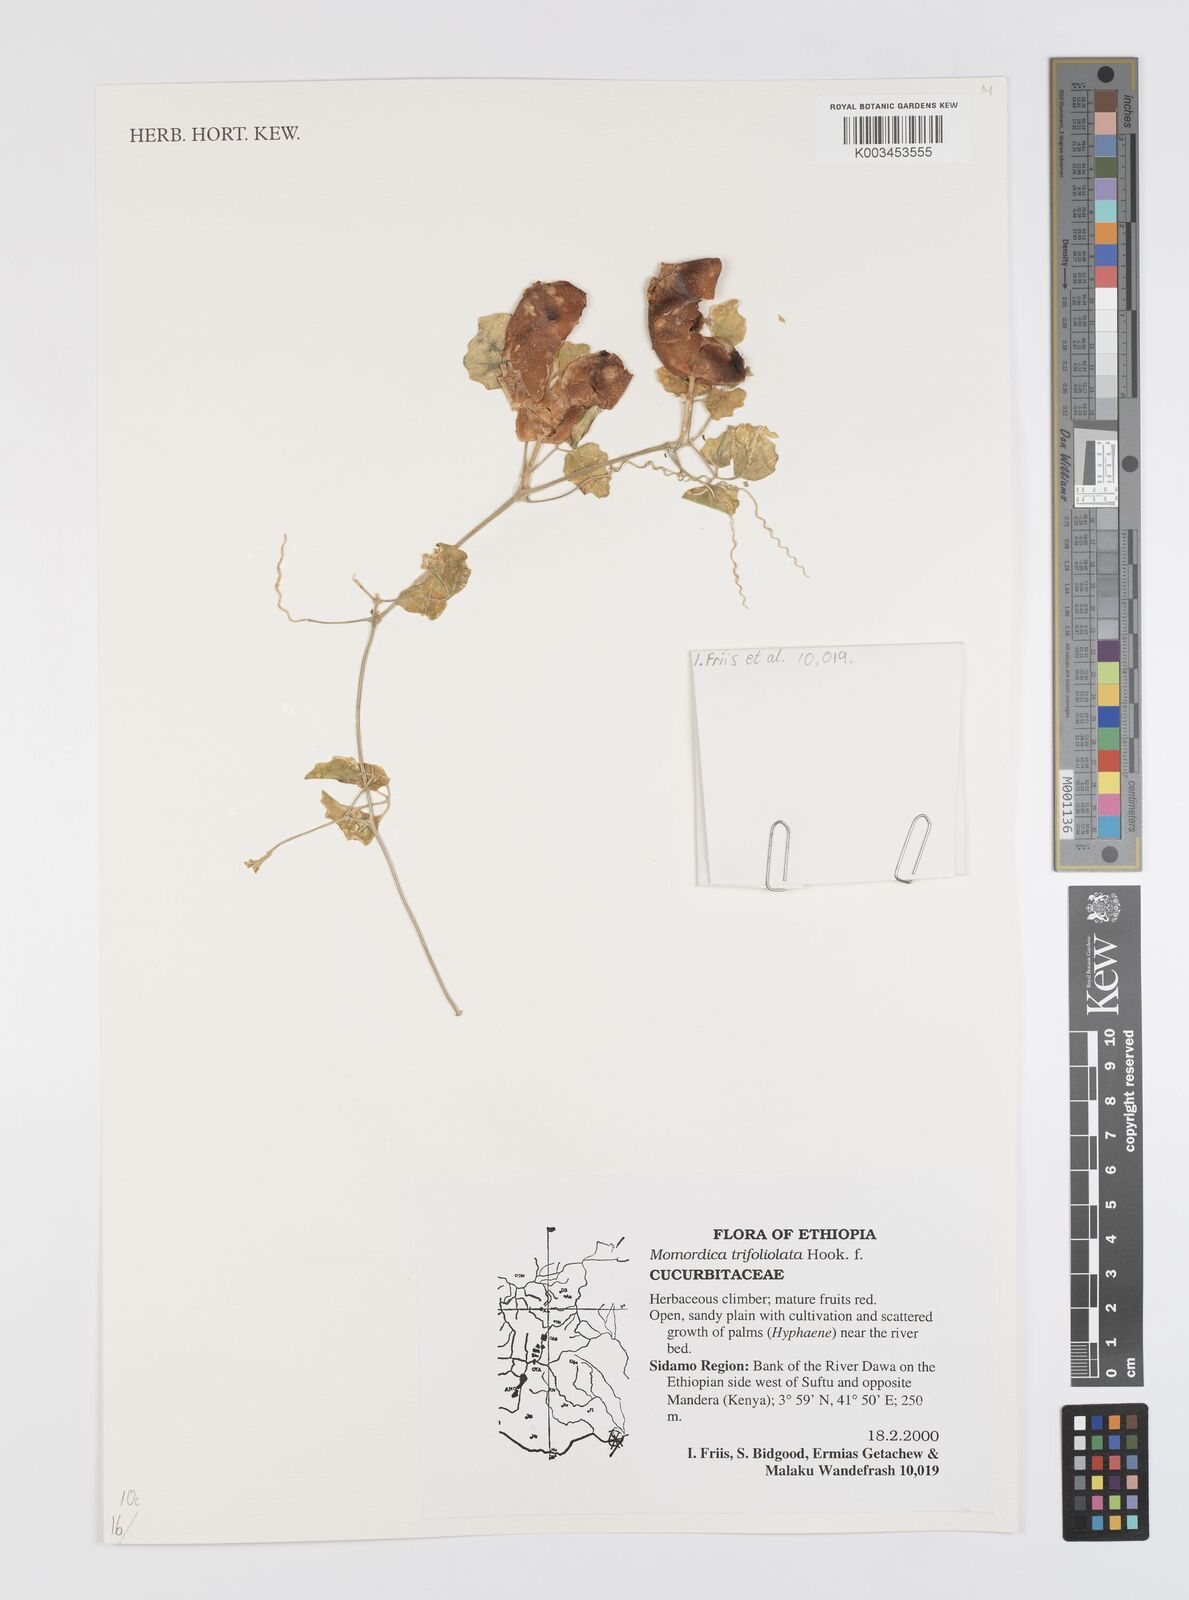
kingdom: Plantae
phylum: Tracheophyta
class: Magnoliopsida
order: Cucurbitales
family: Cucurbitaceae
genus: Momordica
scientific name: Momordica trifoliolata
